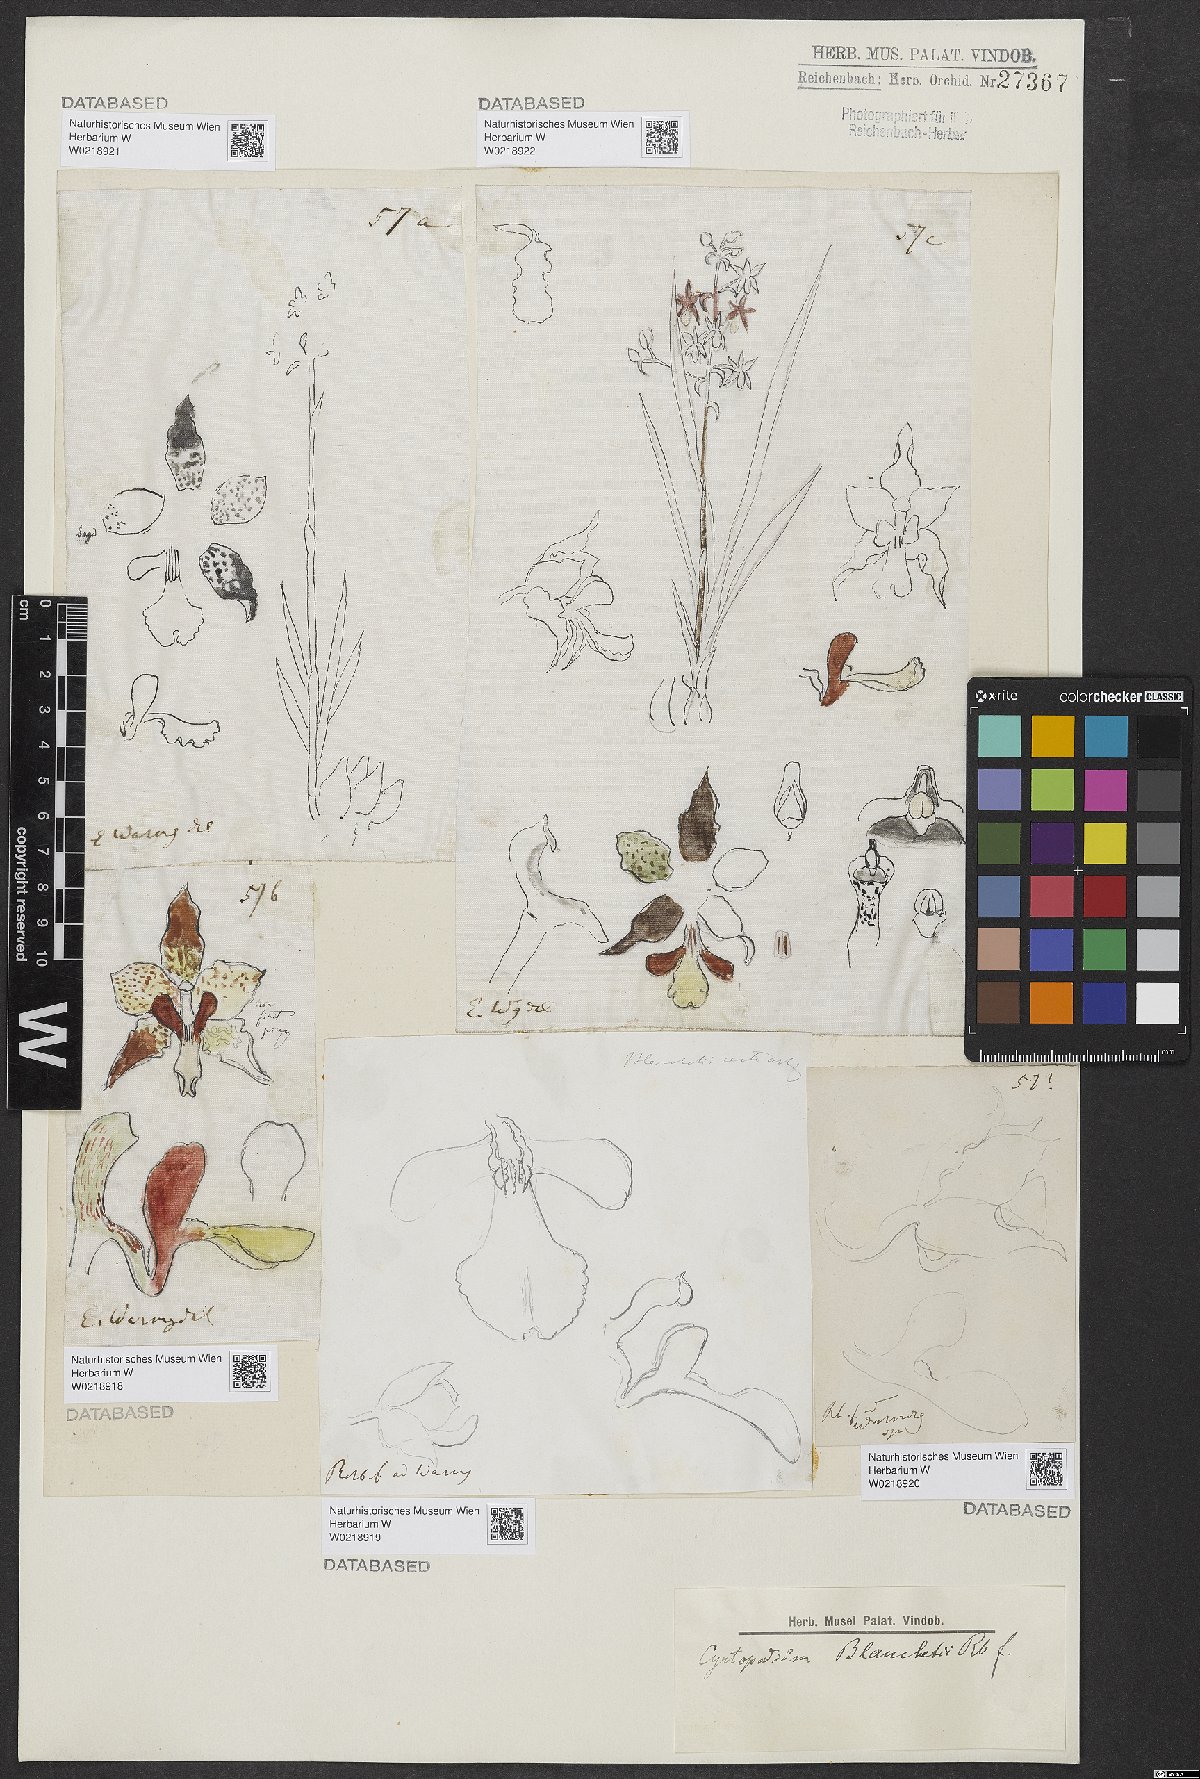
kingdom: Plantae
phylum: Tracheophyta
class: Liliopsida
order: Asparagales
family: Orchidaceae
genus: Cyrtopodium
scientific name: Cyrtopodium blanchetii
